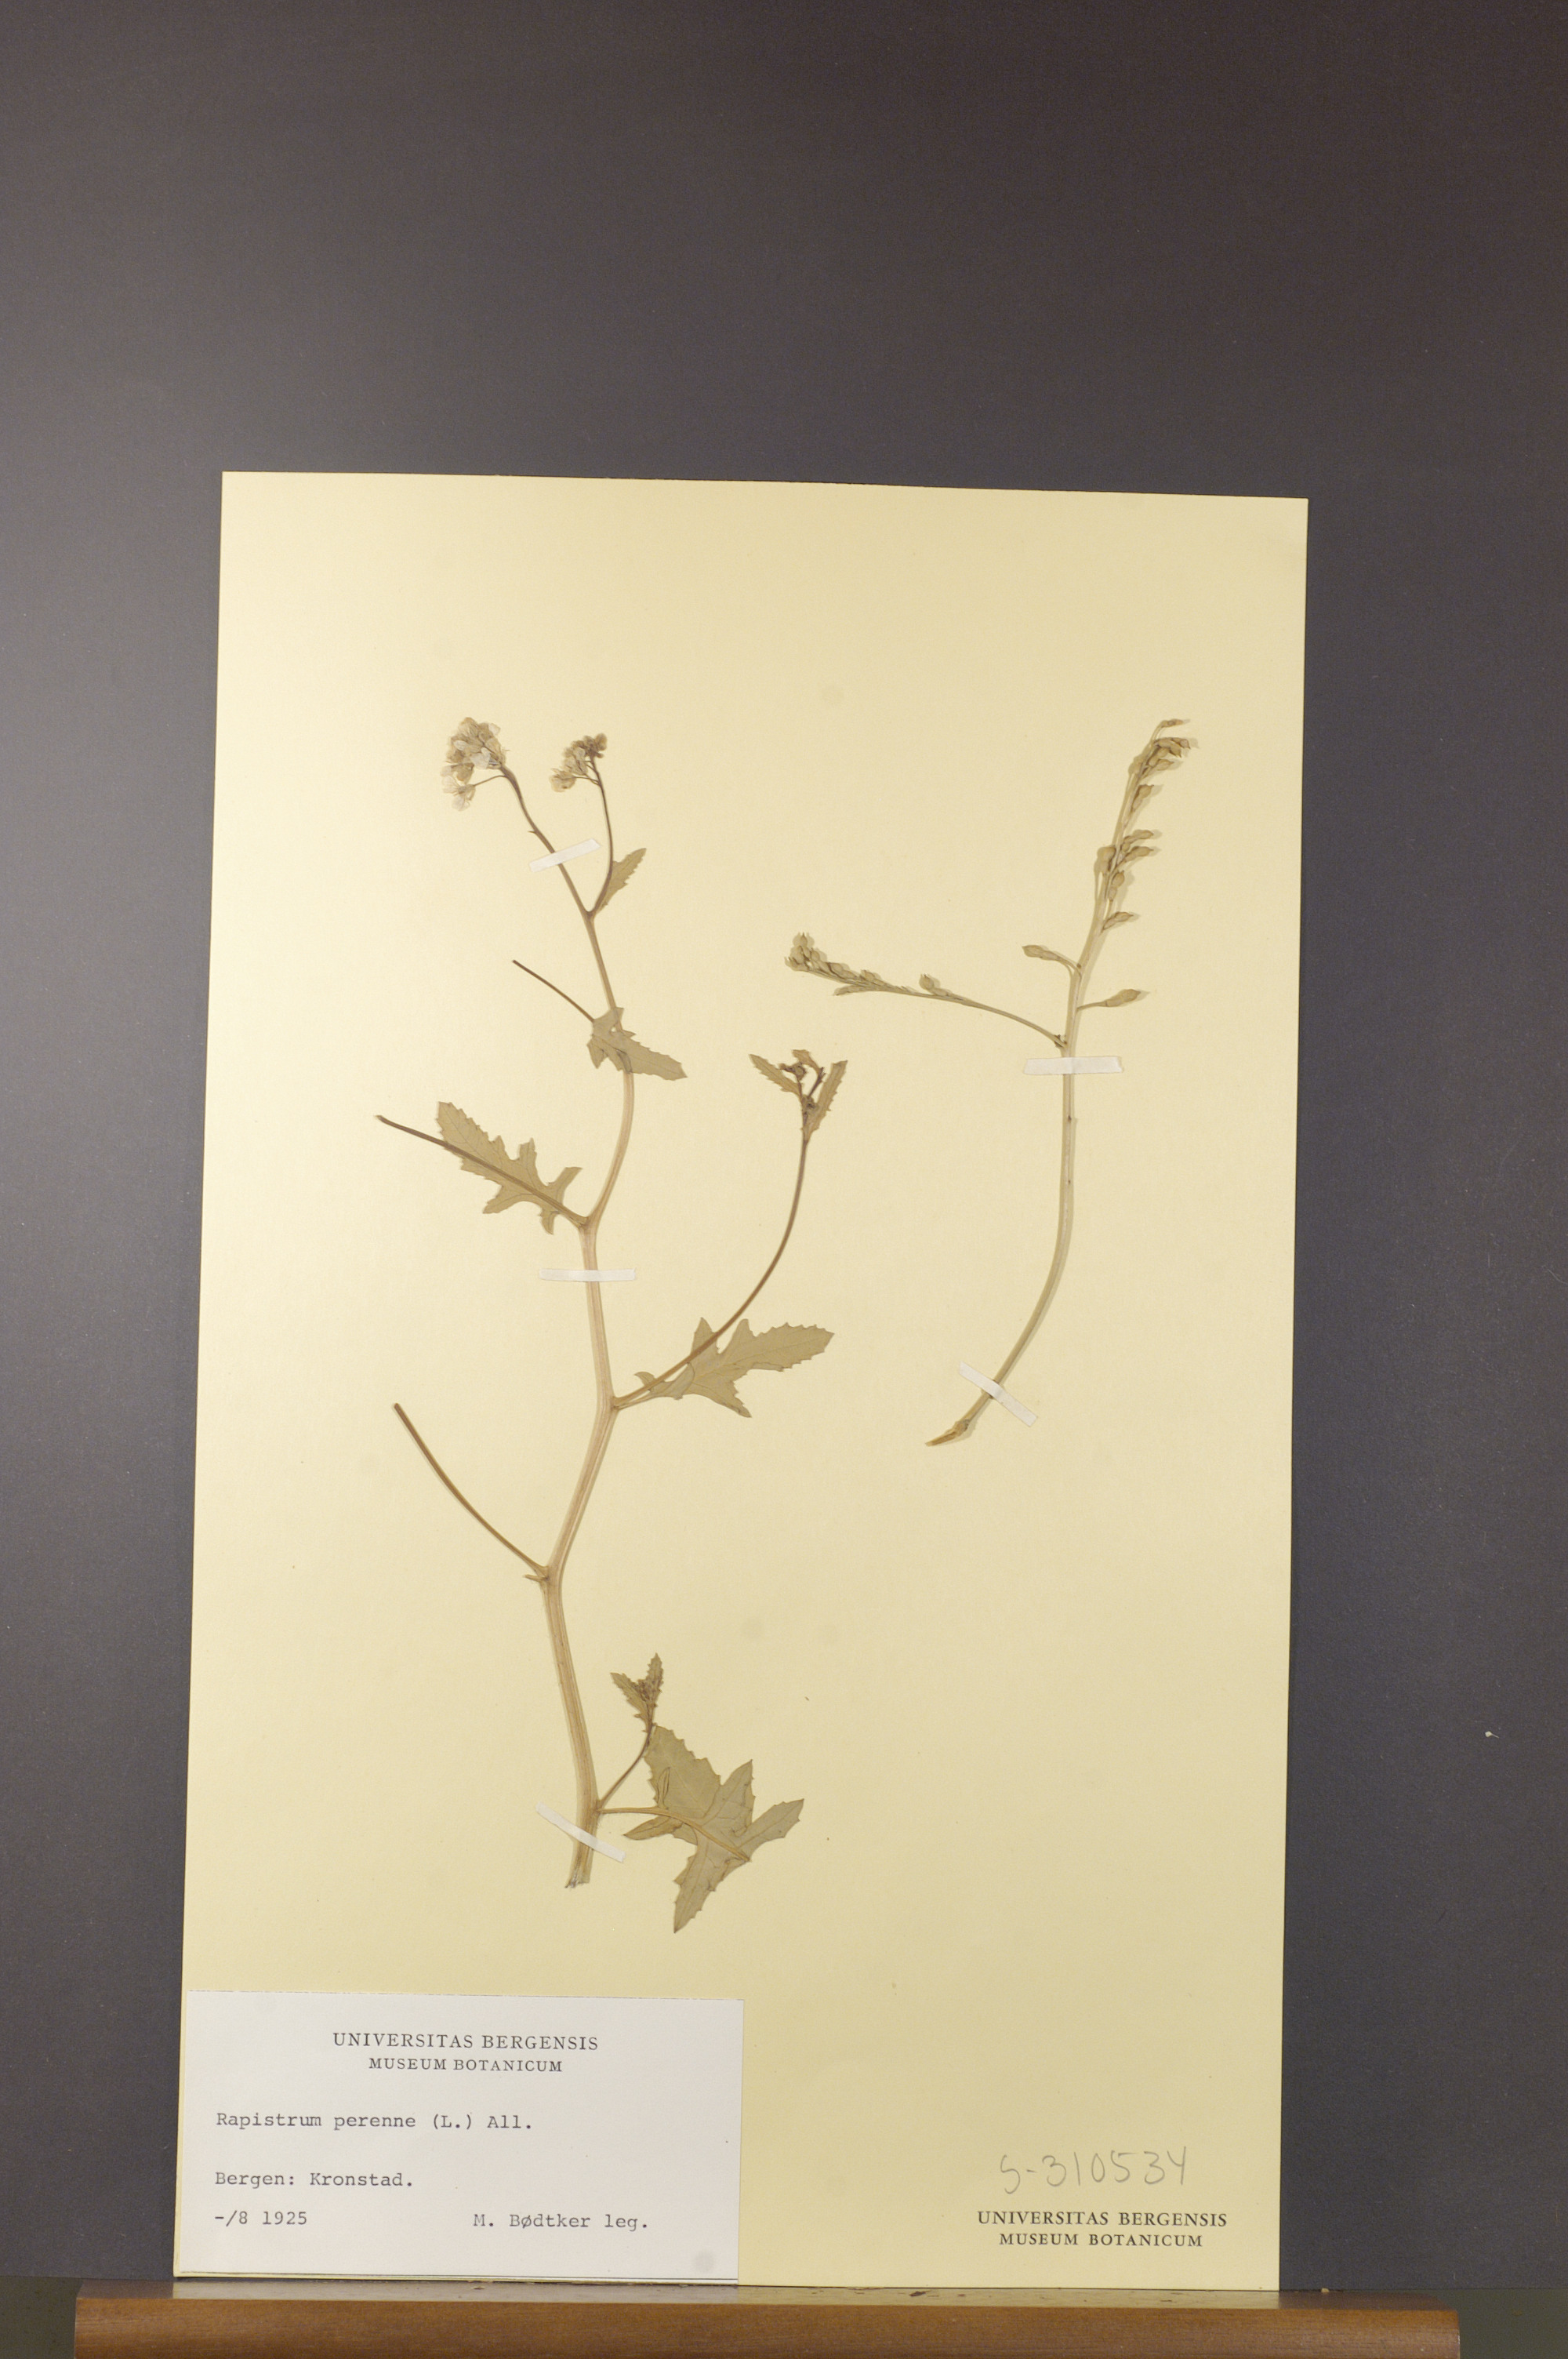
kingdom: Plantae
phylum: Tracheophyta
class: Magnoliopsida
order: Brassicales
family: Brassicaceae
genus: Rapistrum
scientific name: Rapistrum perenne
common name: Steppe cabbage
